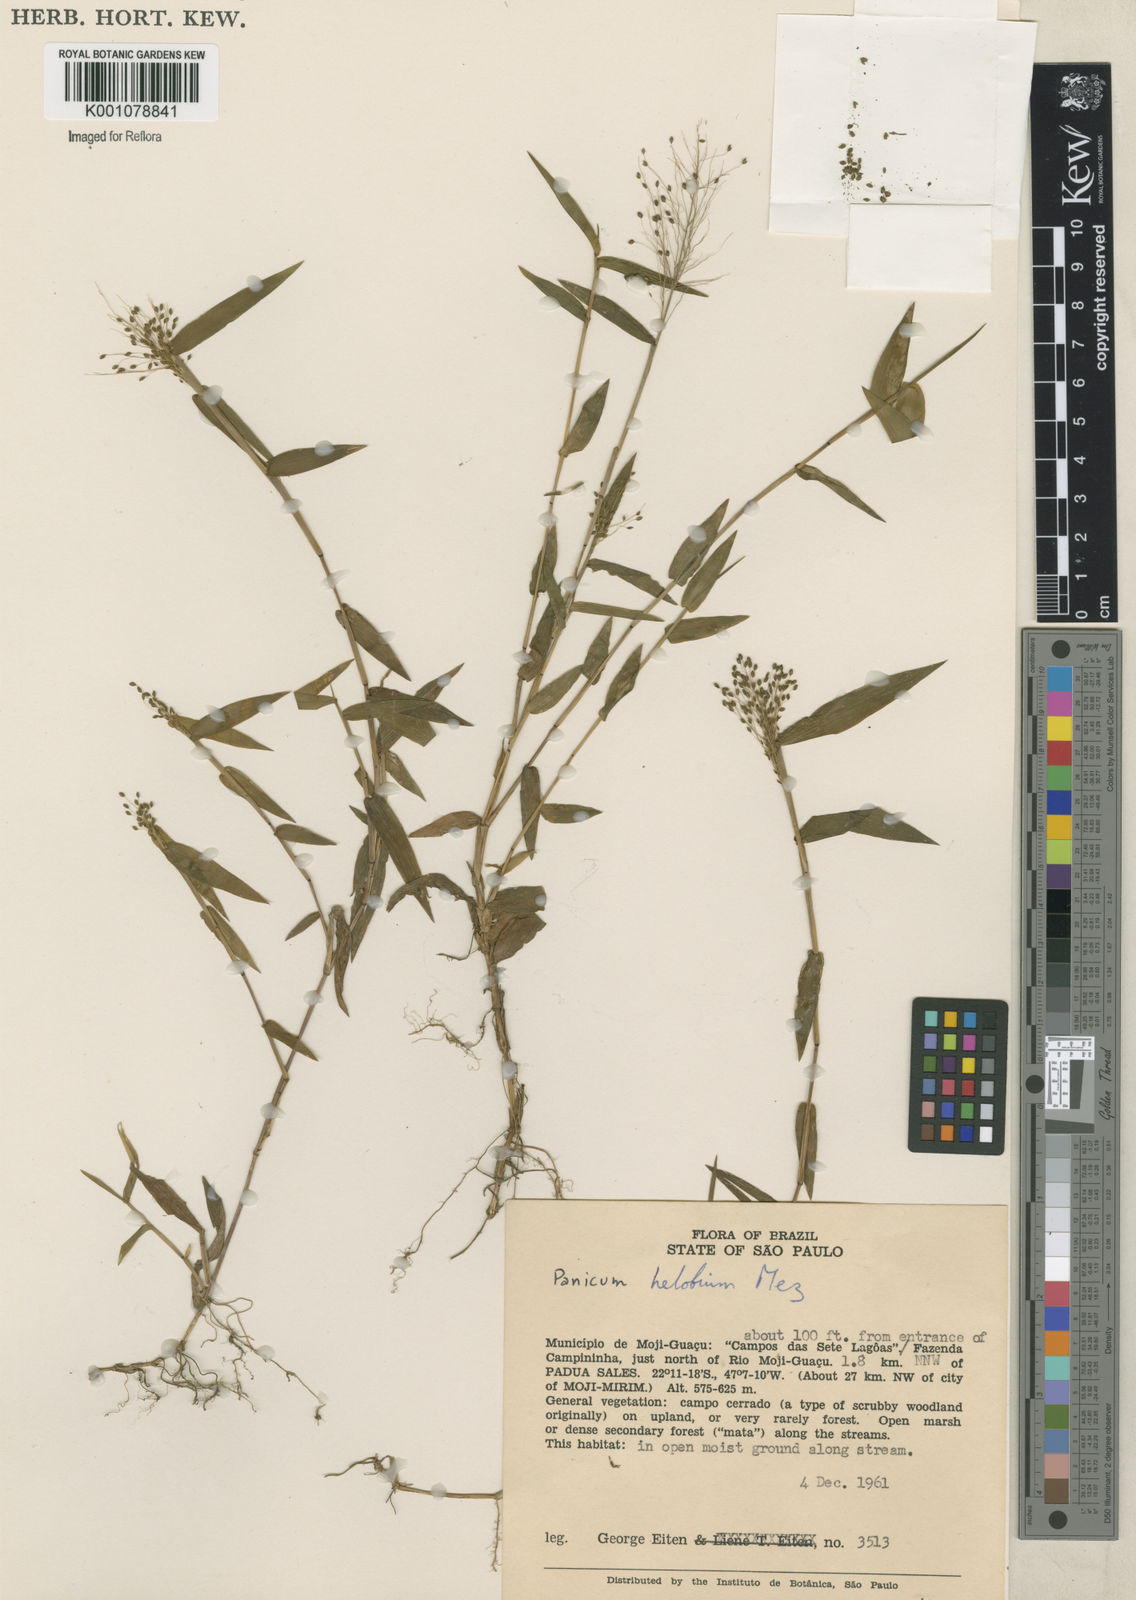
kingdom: Plantae
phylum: Tracheophyta
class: Liliopsida
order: Poales
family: Poaceae
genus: Trichanthecium
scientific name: Trichanthecium schwackeanum
